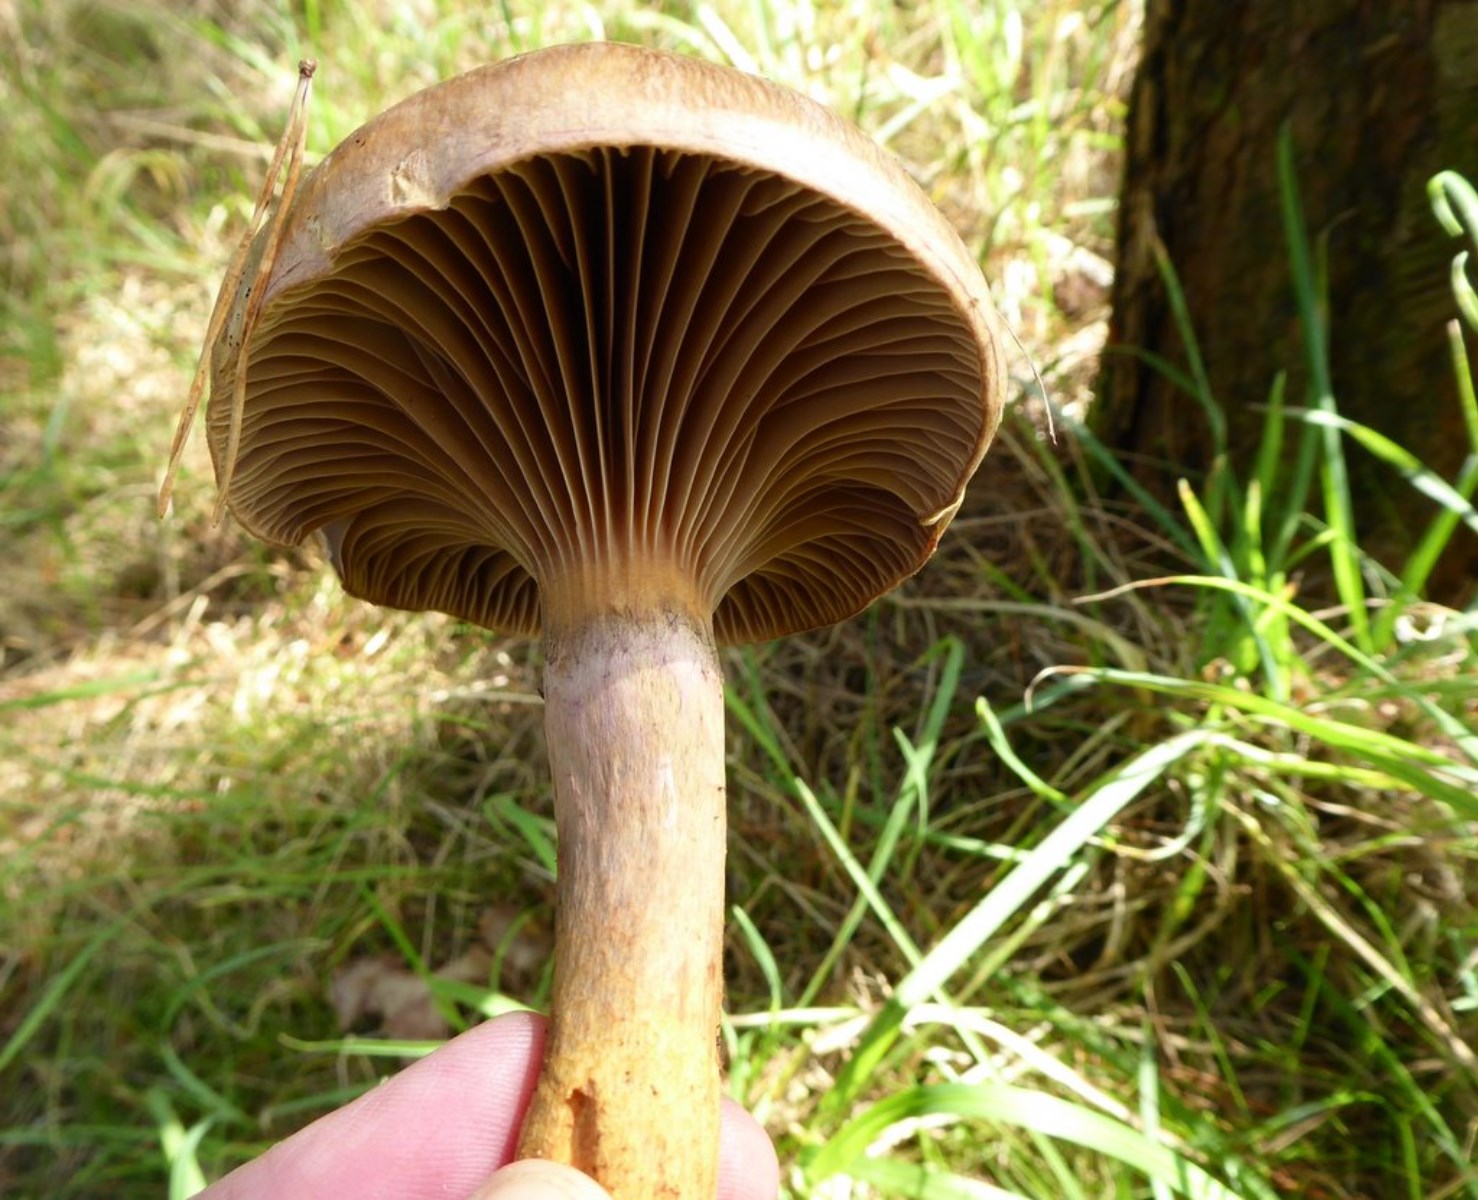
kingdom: Fungi
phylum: Basidiomycota
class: Agaricomycetes
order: Boletales
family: Gomphidiaceae
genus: Chroogomphus
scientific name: Chroogomphus rutilus
